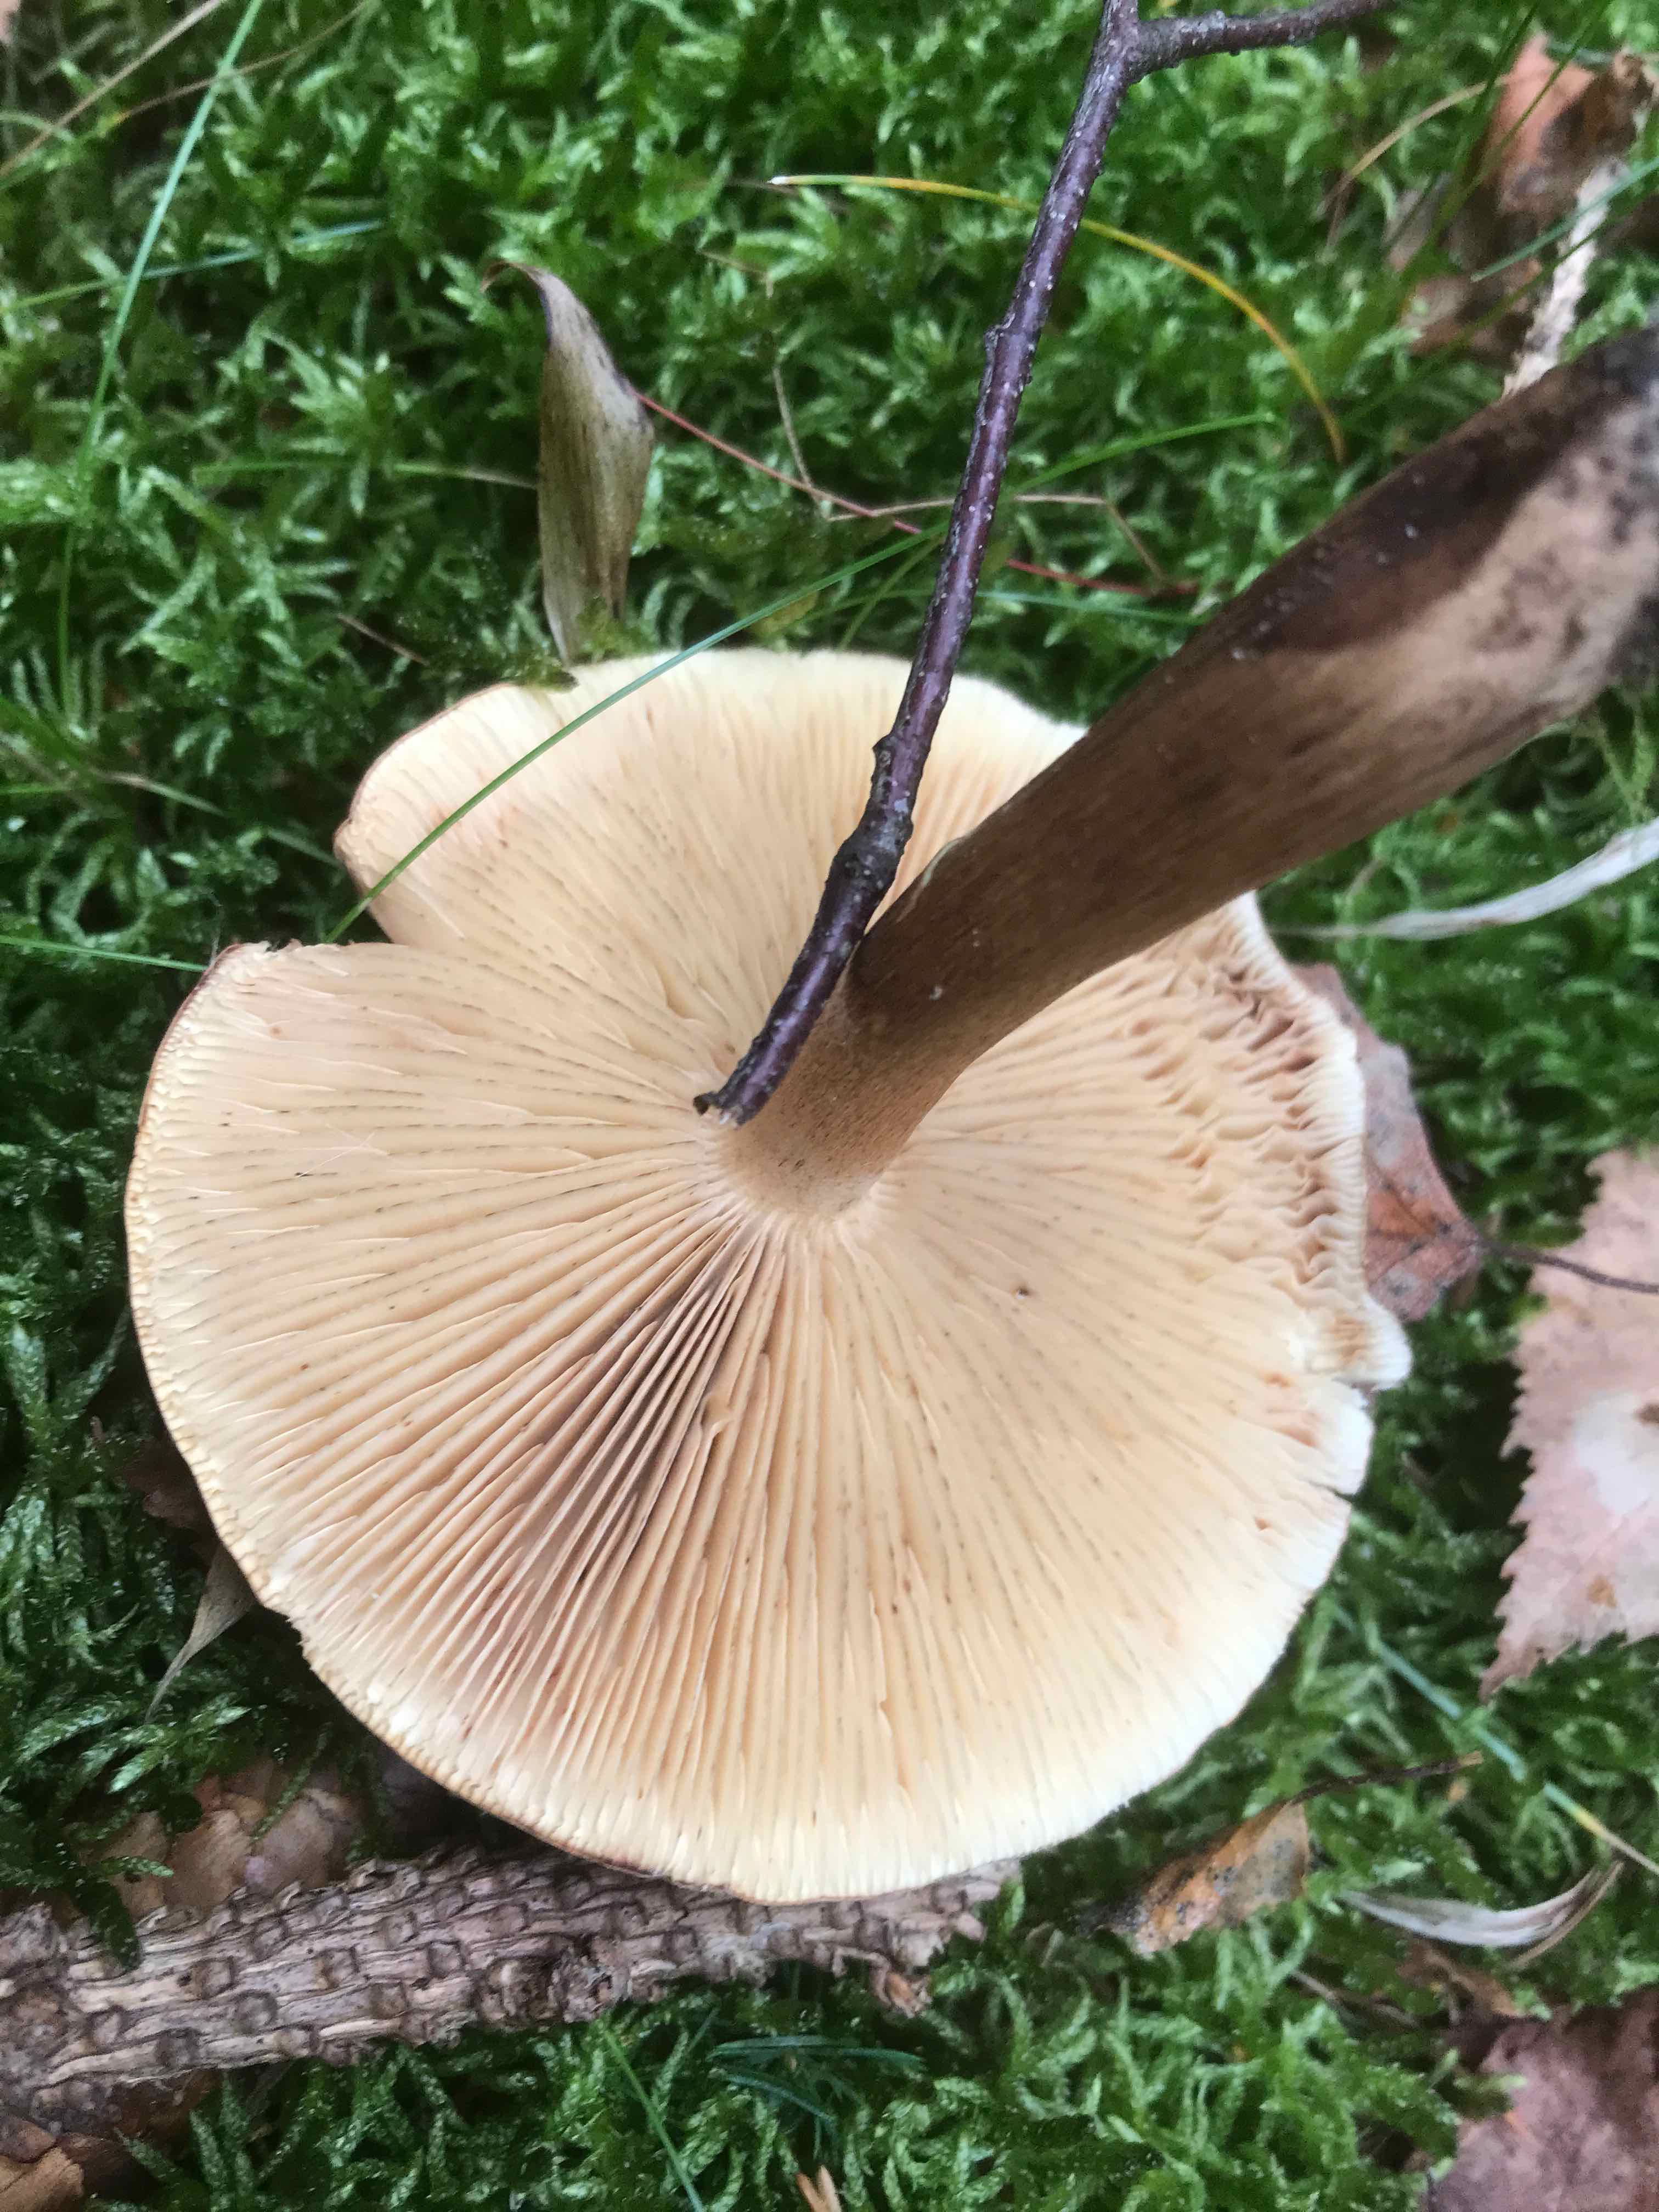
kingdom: Fungi
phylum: Basidiomycota
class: Agaricomycetes
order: Agaricales
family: Tricholomataceae
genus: Tricholoma
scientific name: Tricholoma fulvum
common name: birke-ridderhat
